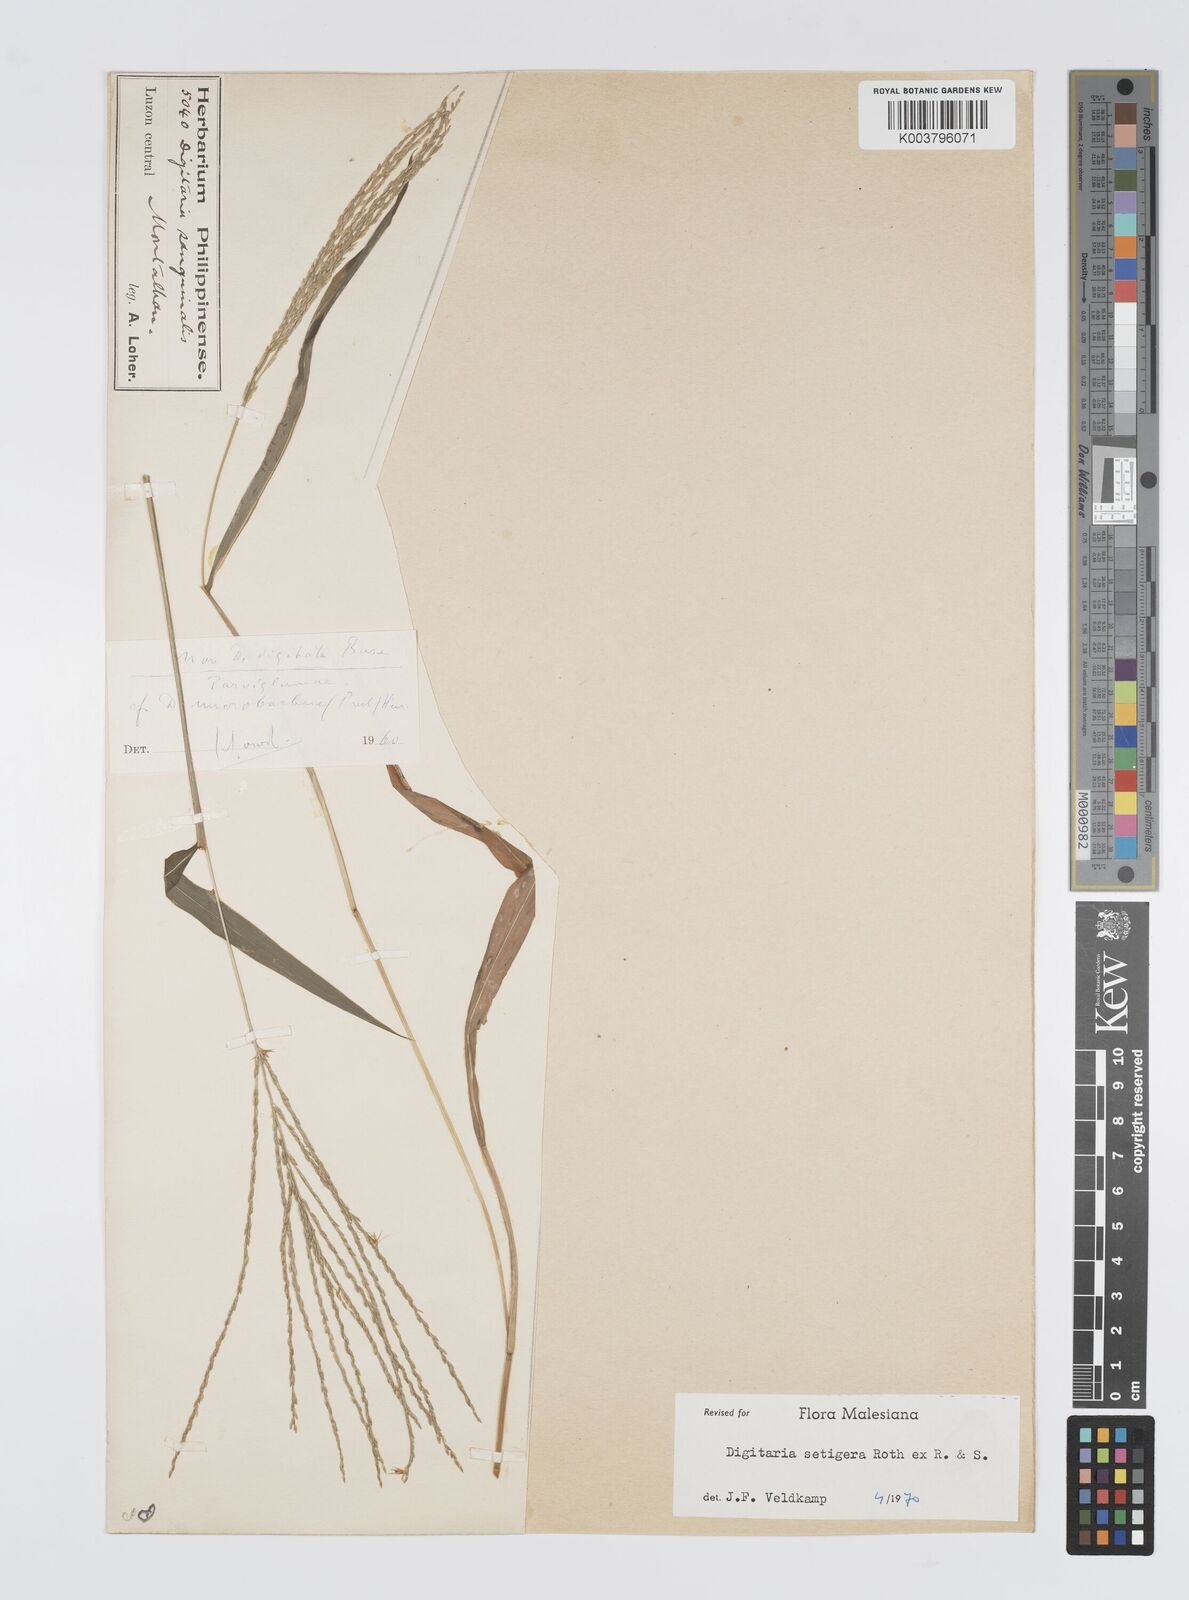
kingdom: Plantae
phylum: Tracheophyta
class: Liliopsida
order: Poales
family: Poaceae
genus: Digitaria
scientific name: Digitaria setigera
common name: East indian crabgrass
